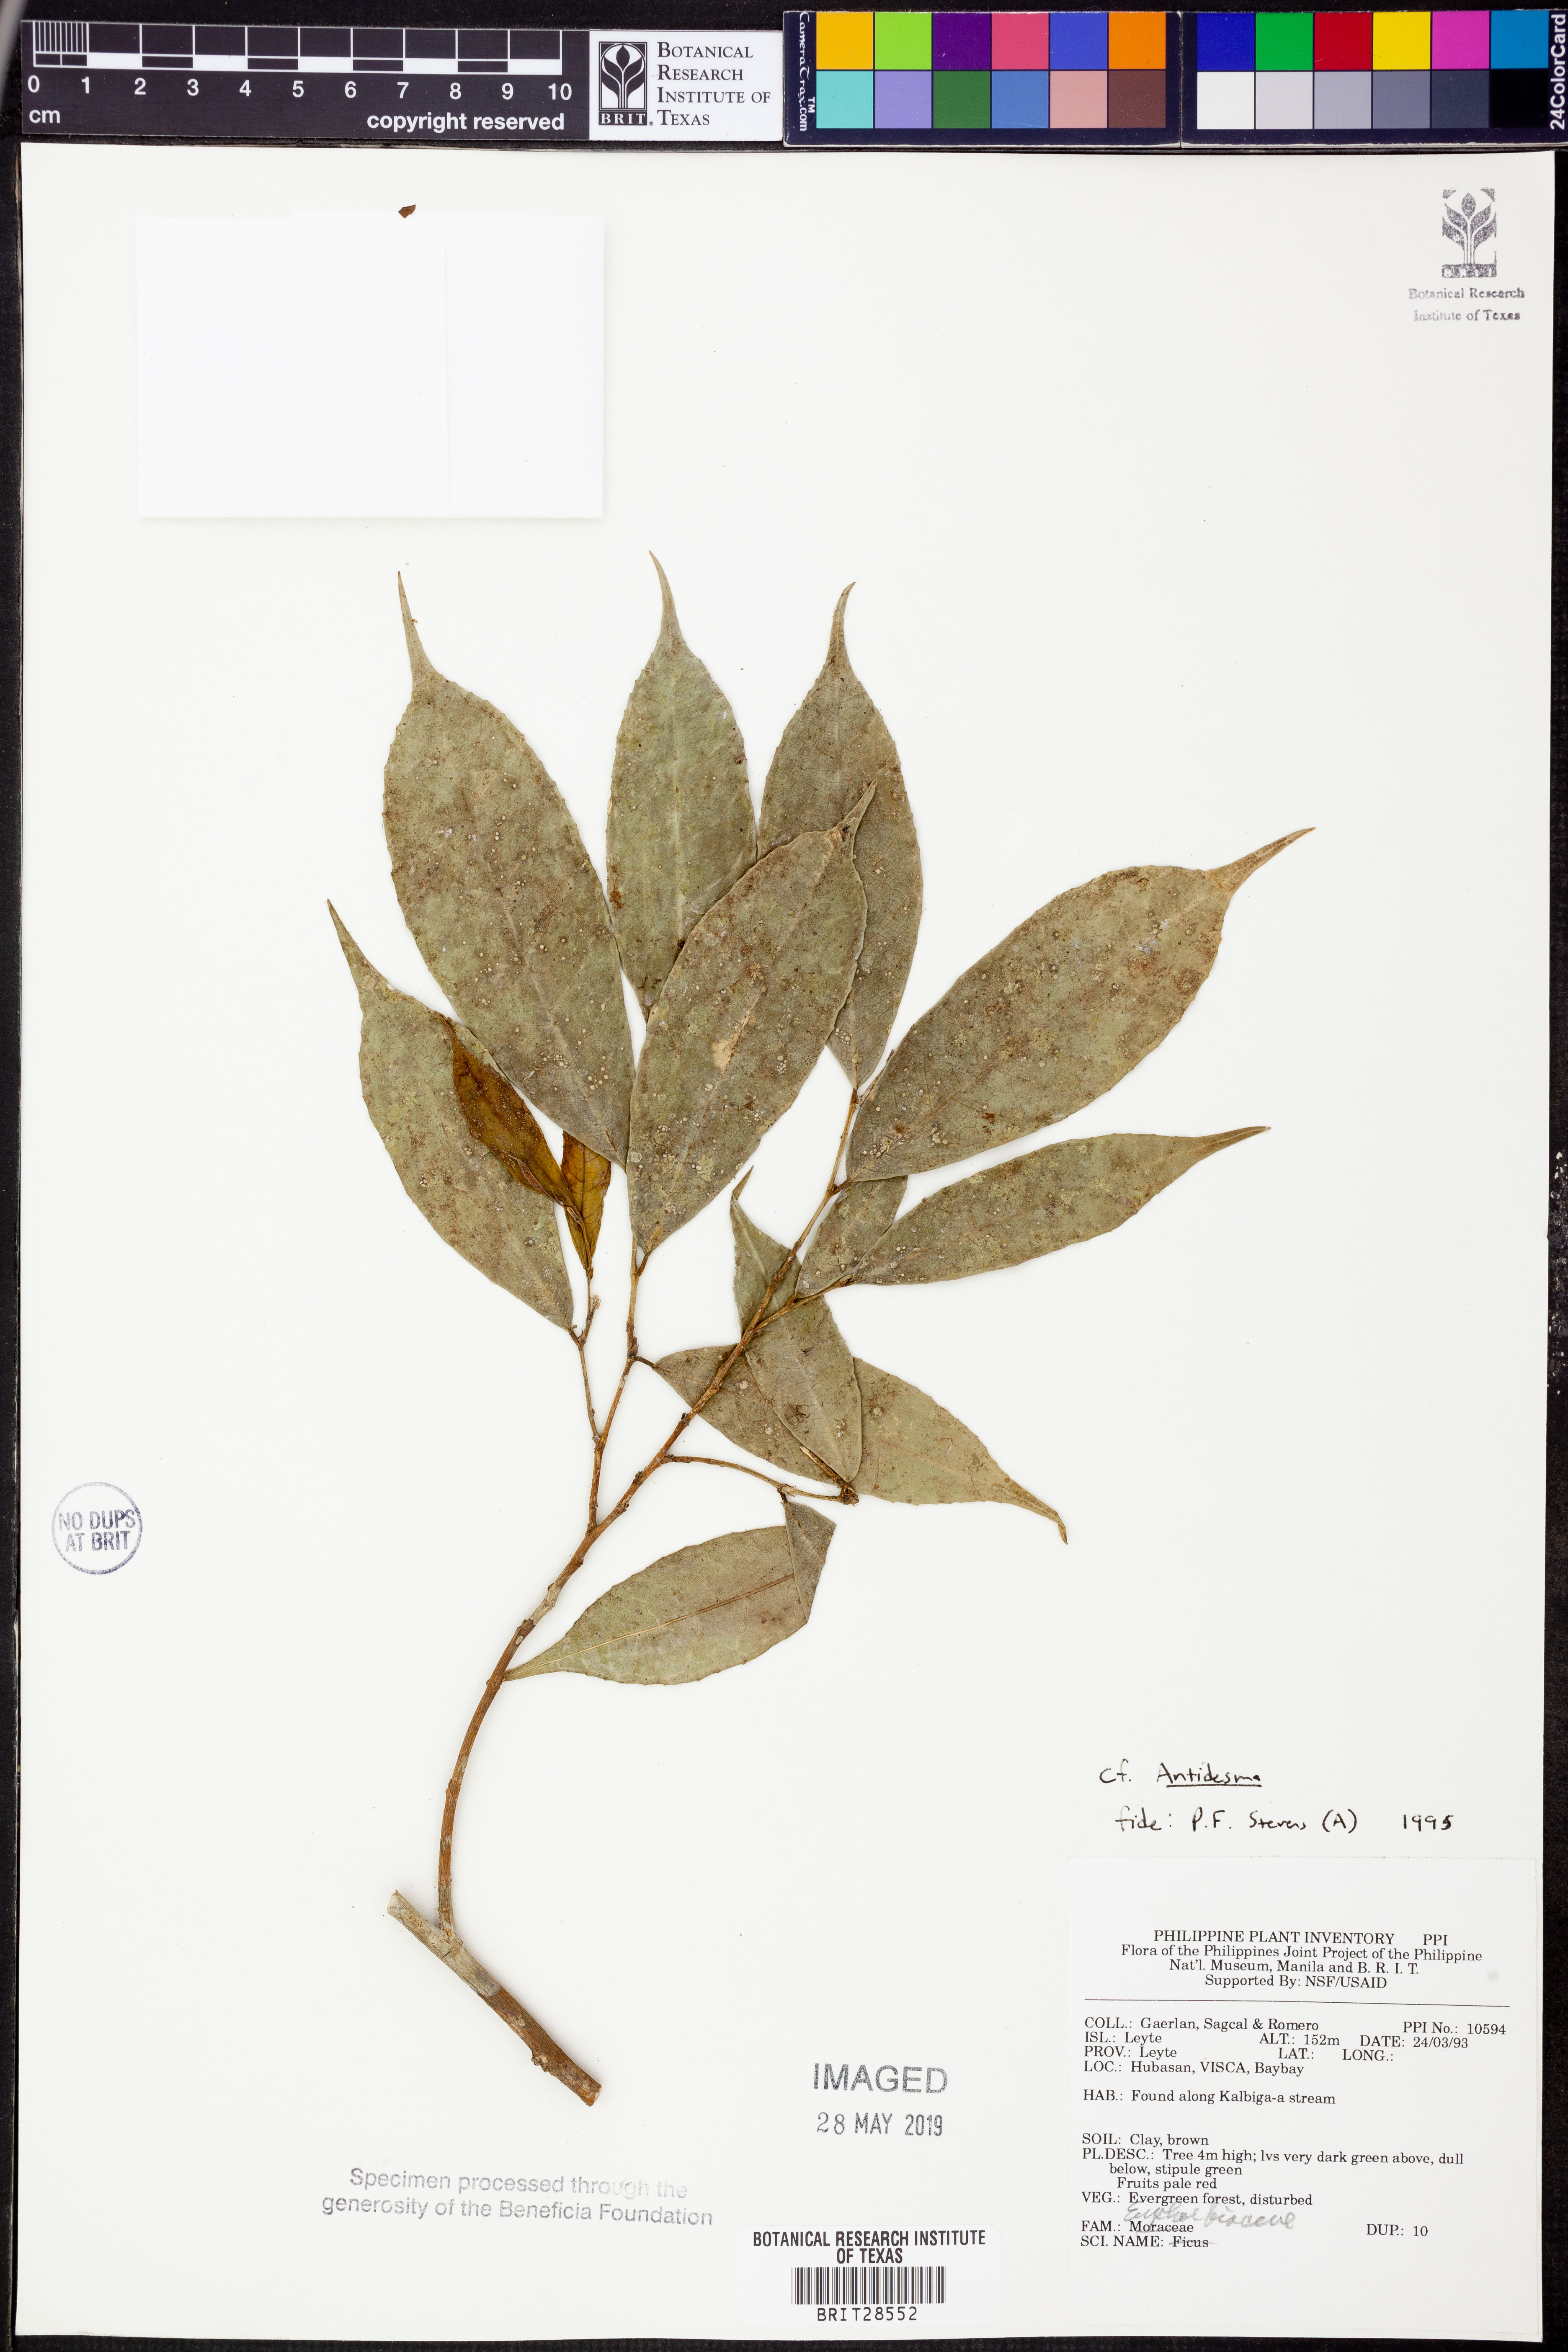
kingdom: Plantae
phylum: Tracheophyta
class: Magnoliopsida
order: Malpighiales
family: Phyllanthaceae
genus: Antidesma
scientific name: Antidesma
